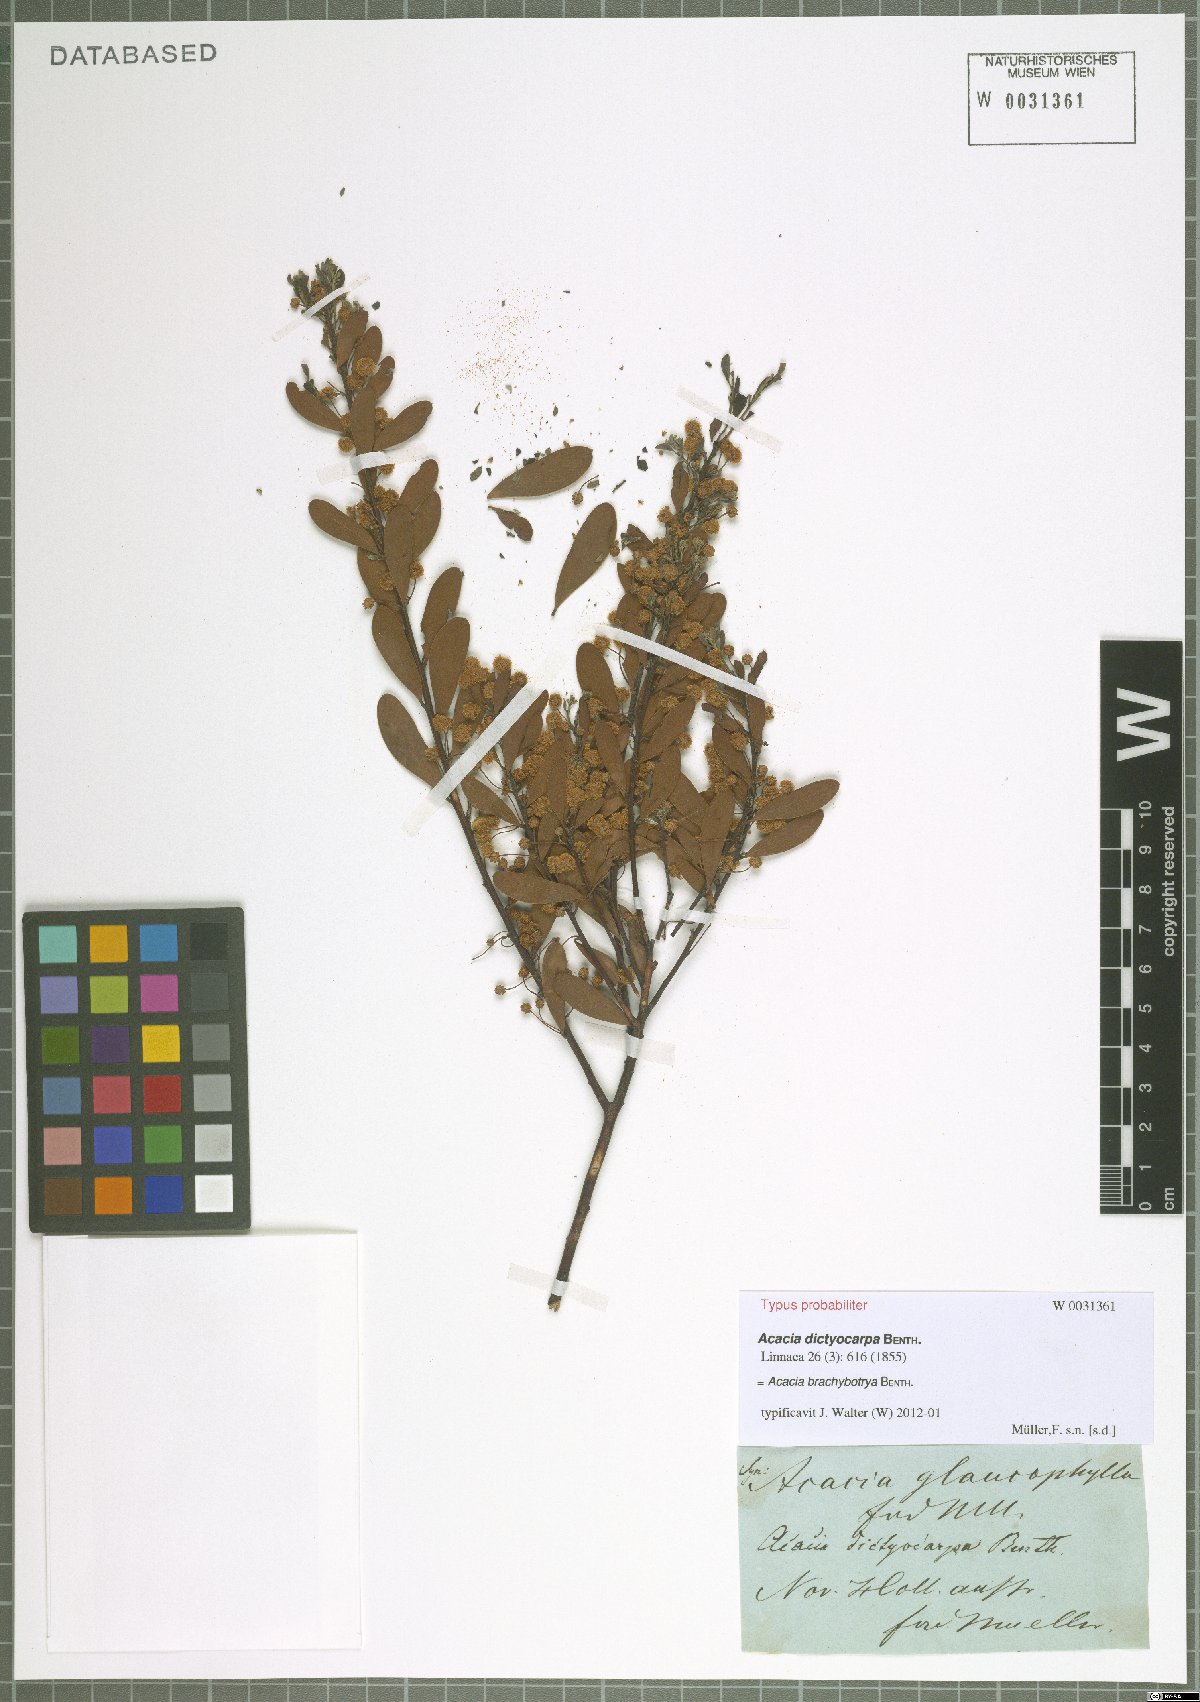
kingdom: Plantae
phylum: Tracheophyta
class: Magnoliopsida
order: Fabales
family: Fabaceae
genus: Acacia
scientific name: Acacia brachybotrya
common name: Grey mulga
